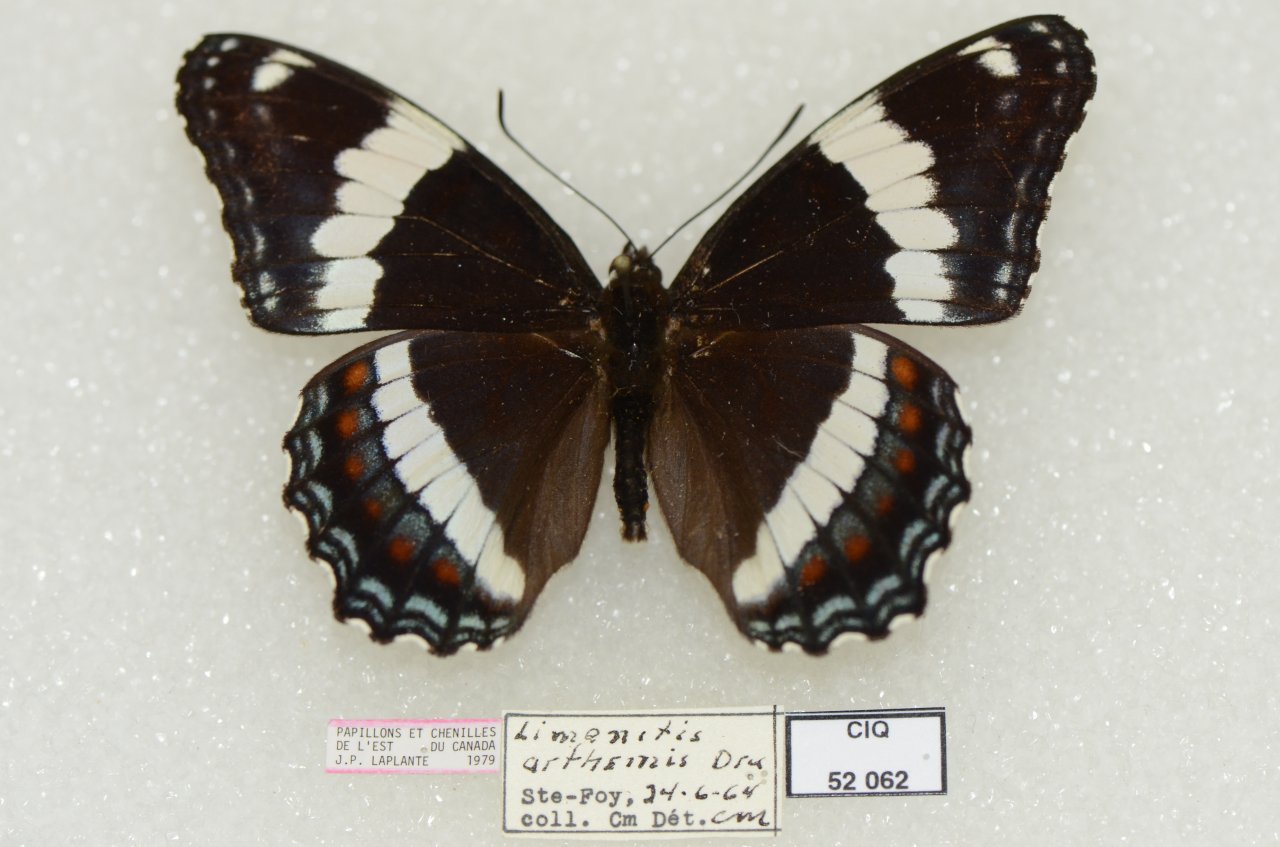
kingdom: Animalia
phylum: Arthropoda
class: Insecta
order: Lepidoptera
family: Nymphalidae
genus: Limenitis
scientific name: Limenitis arthemis
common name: Red-spotted Admiral
